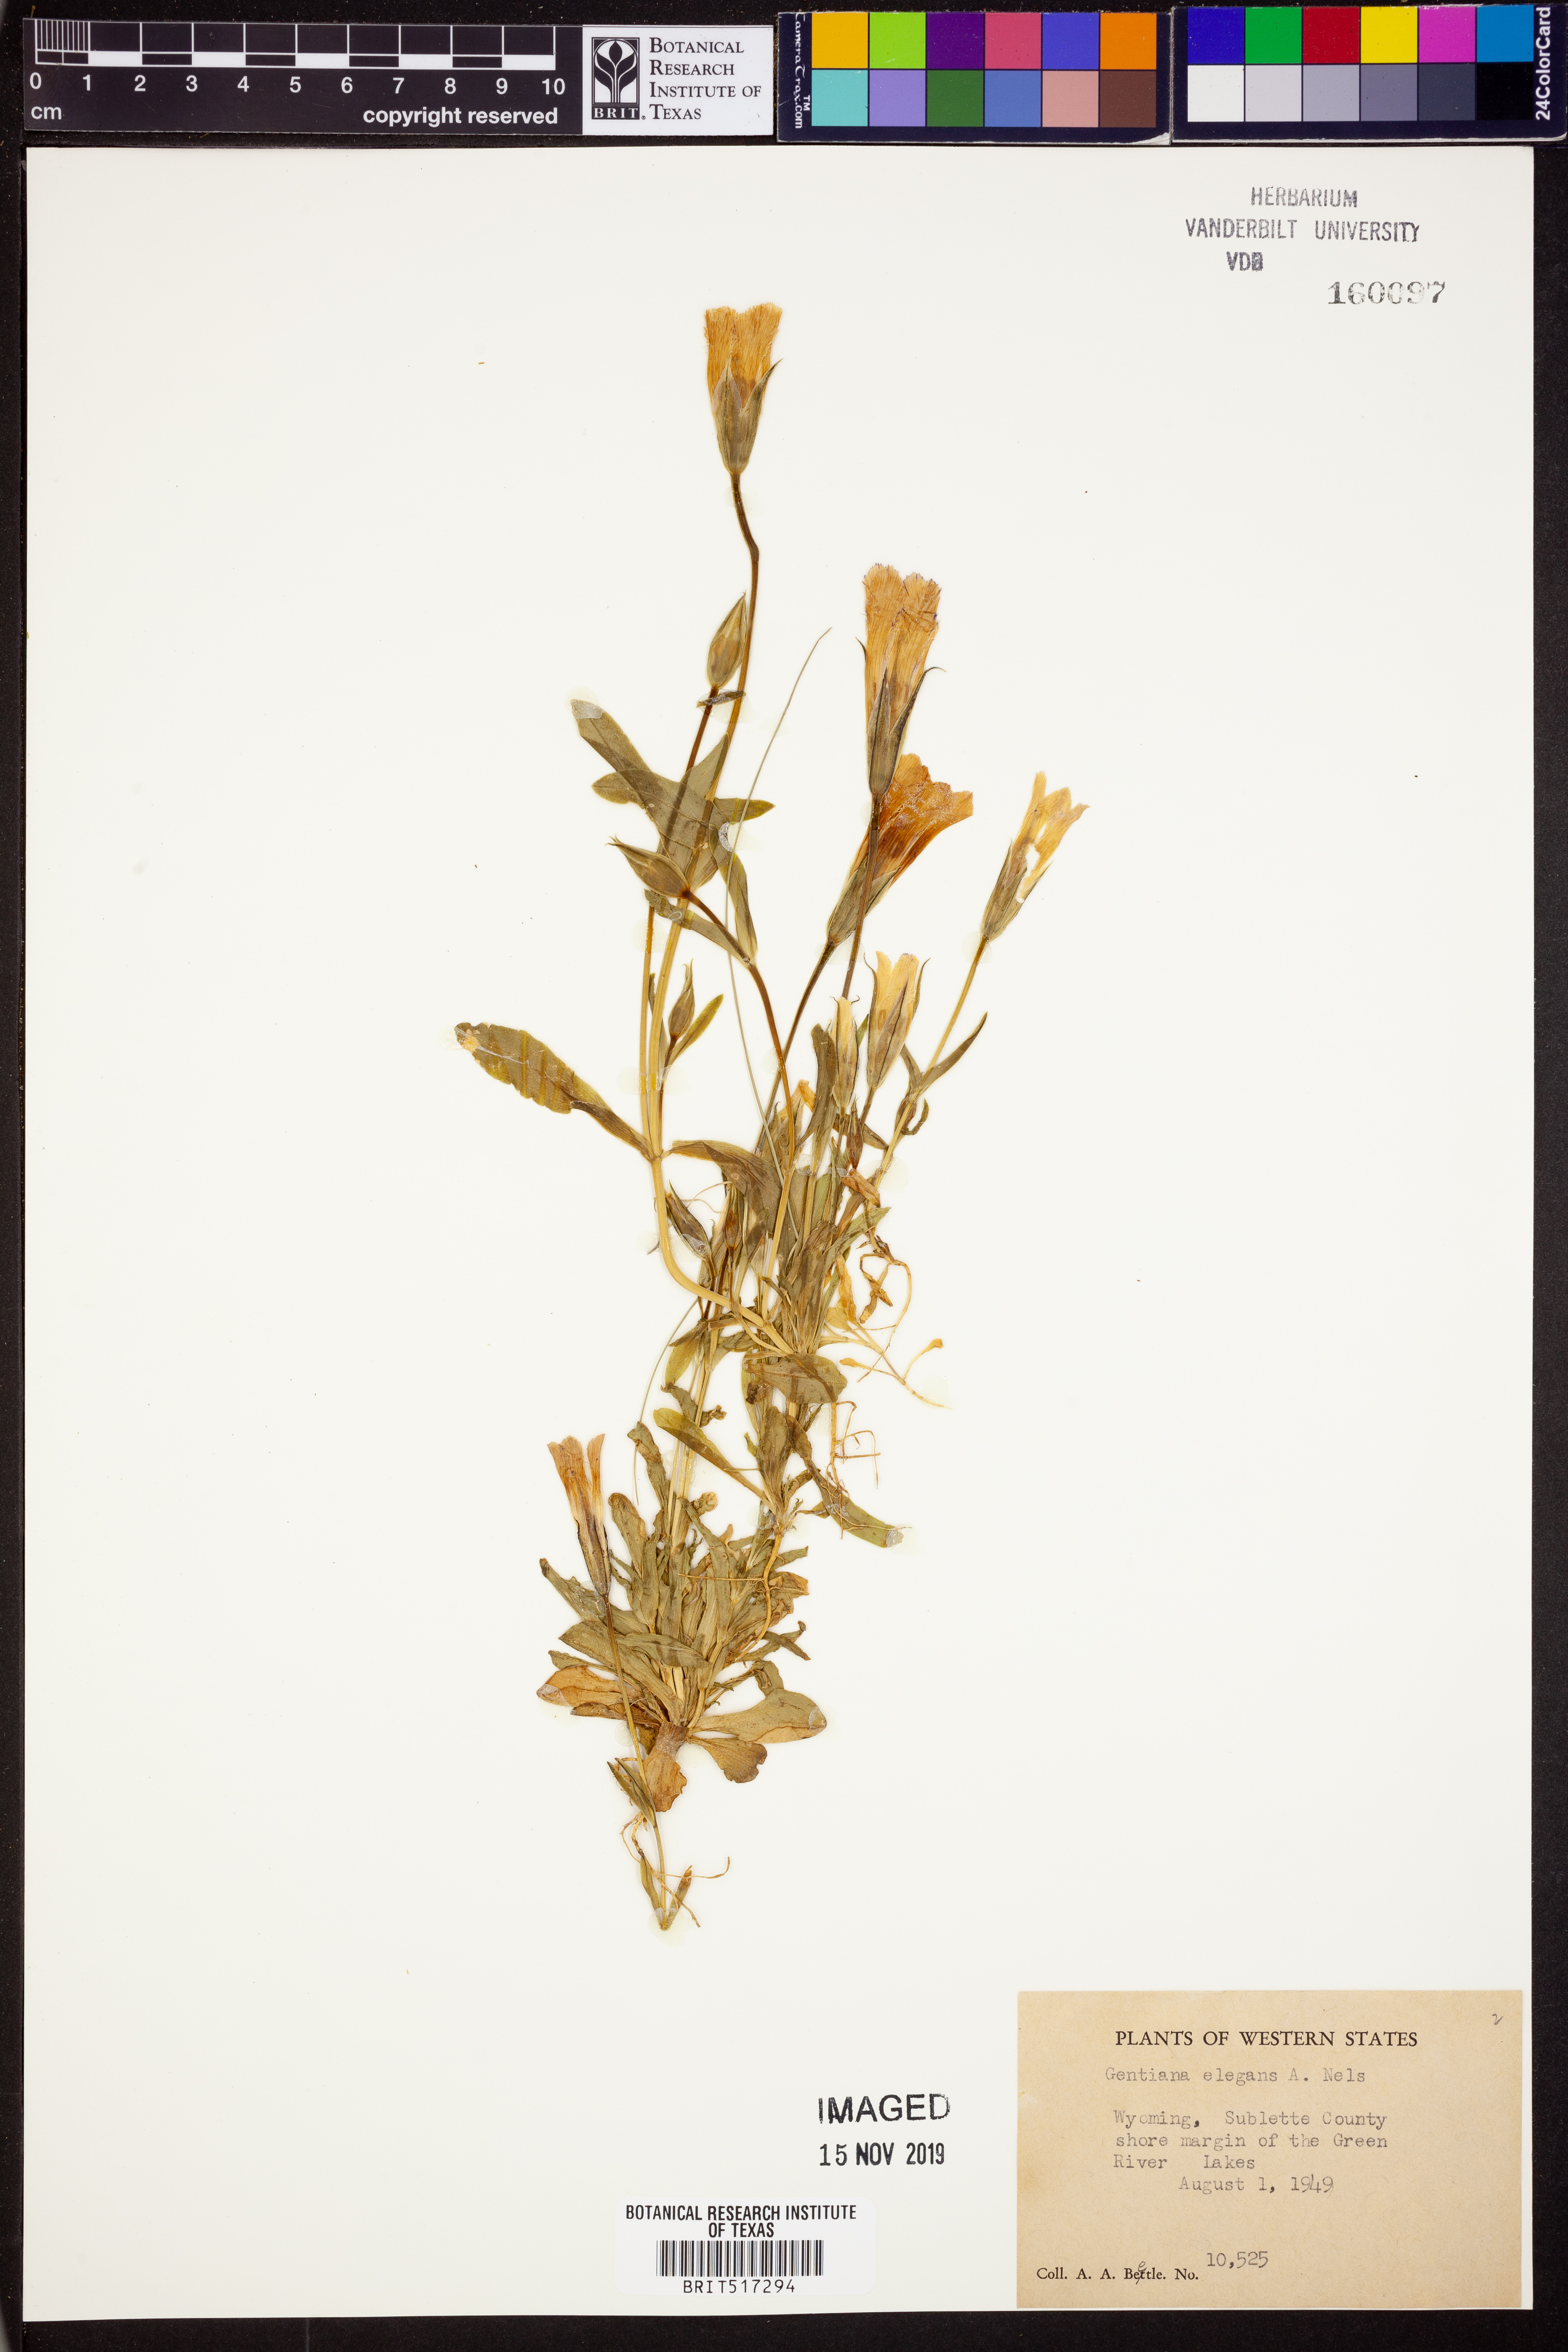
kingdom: Plantae
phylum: Tracheophyta
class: Magnoliopsida
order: Gentianales
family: Gentianaceae
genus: Gentianopsis
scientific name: Gentianopsis thermalis
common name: Rocky mountain fringed-gentian
